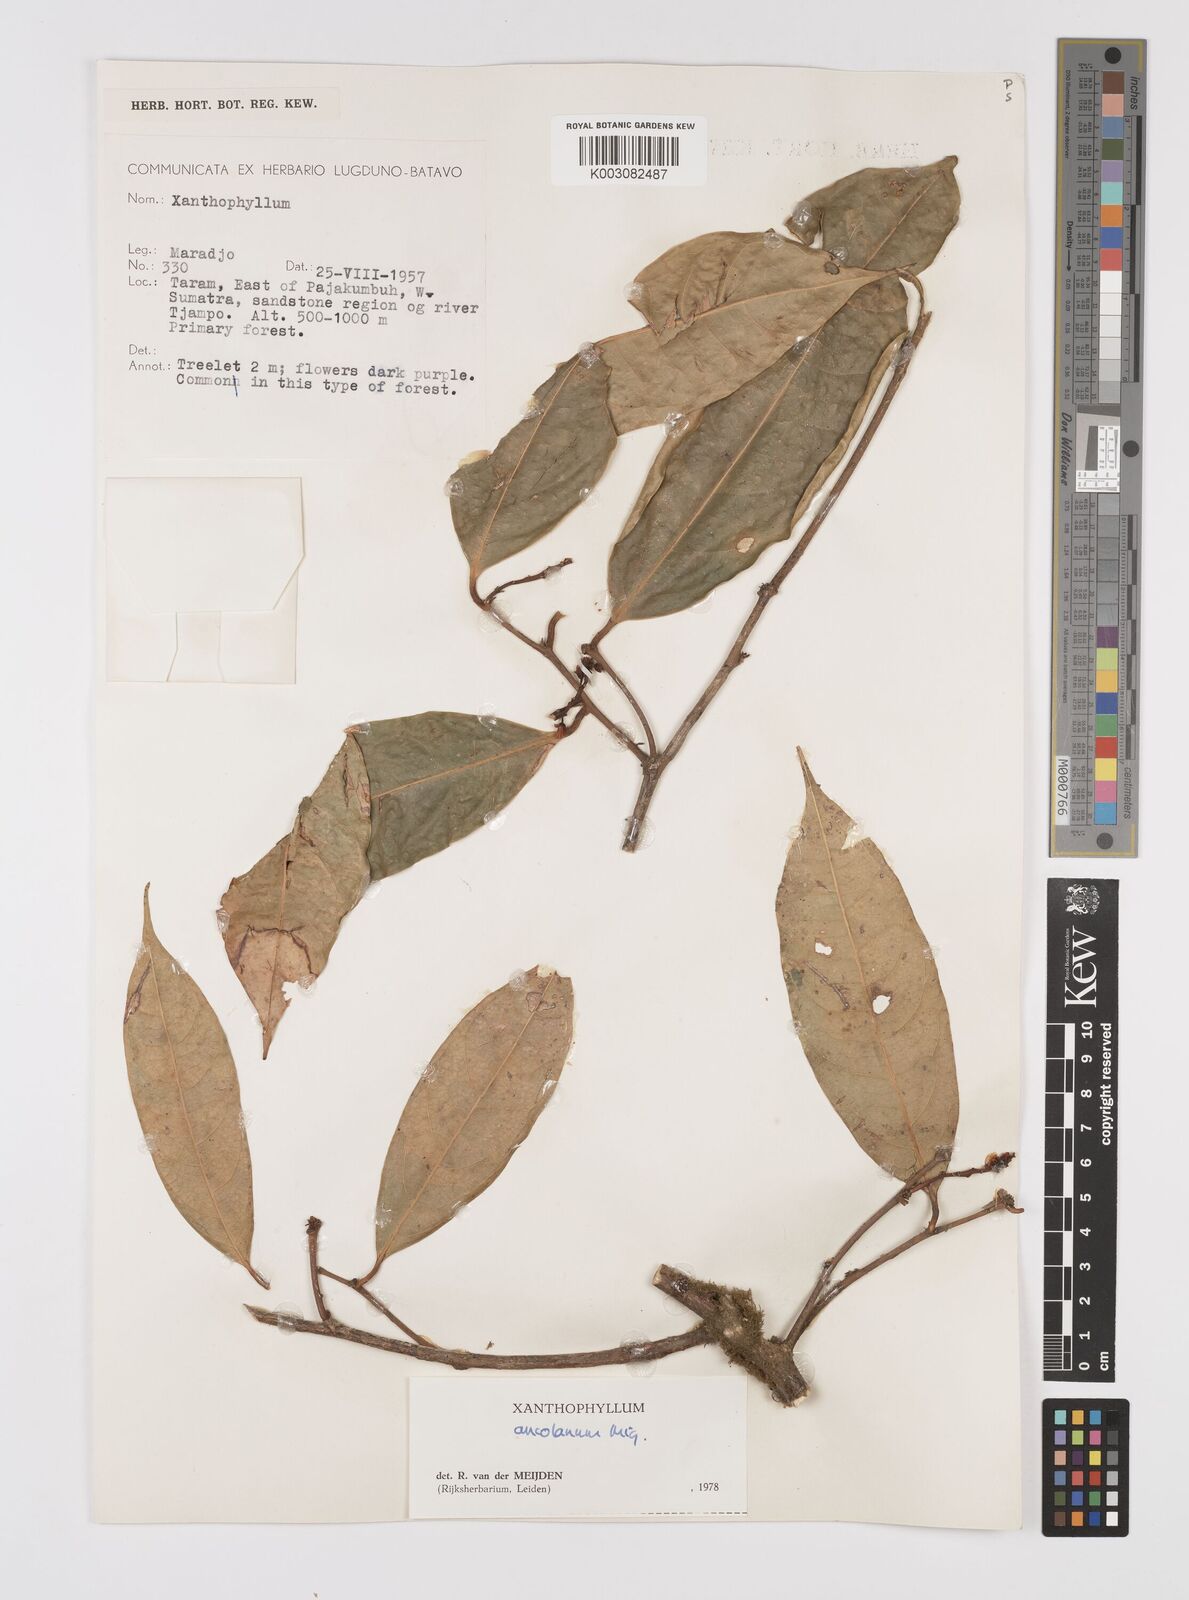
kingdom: Plantae
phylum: Tracheophyta
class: Magnoliopsida
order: Fabales
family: Polygalaceae
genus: Xanthophyllum
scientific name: Xanthophyllum ancolanum
